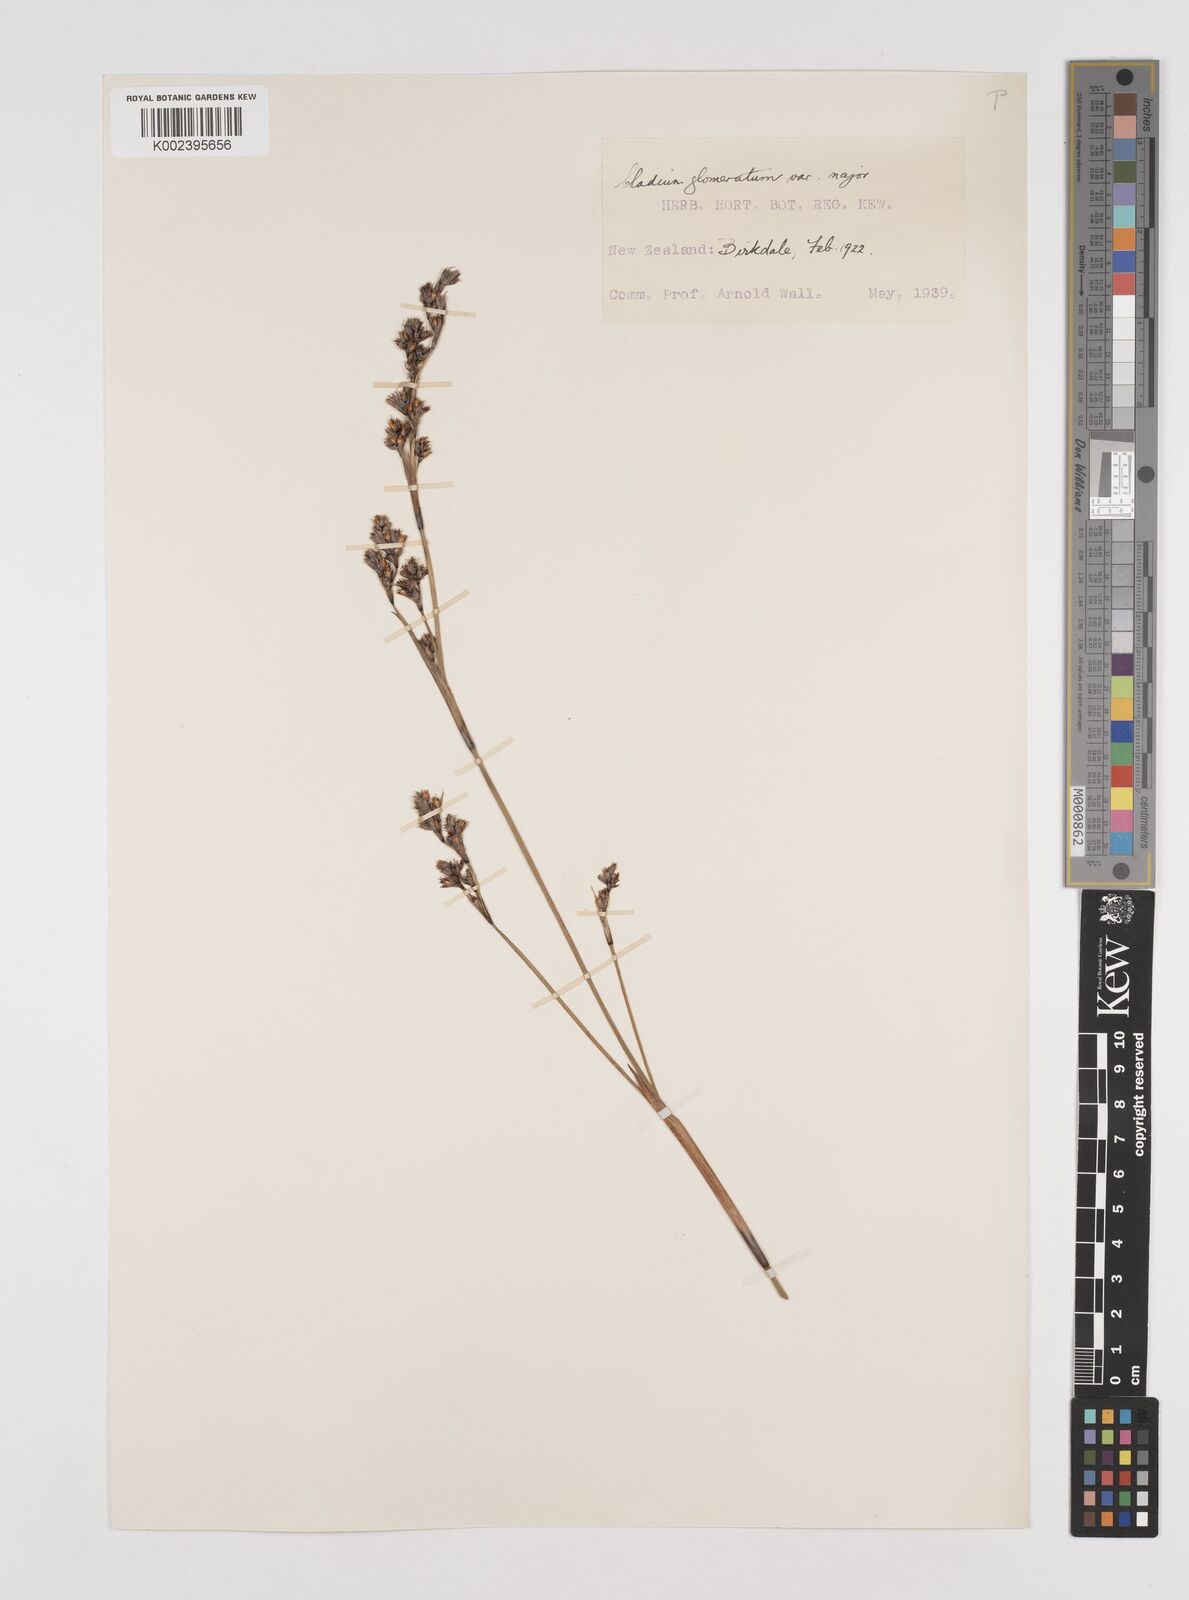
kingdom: Plantae
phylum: Tracheophyta
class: Liliopsida
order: Poales
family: Cyperaceae
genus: Machaerina
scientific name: Machaerina rubiginosa
